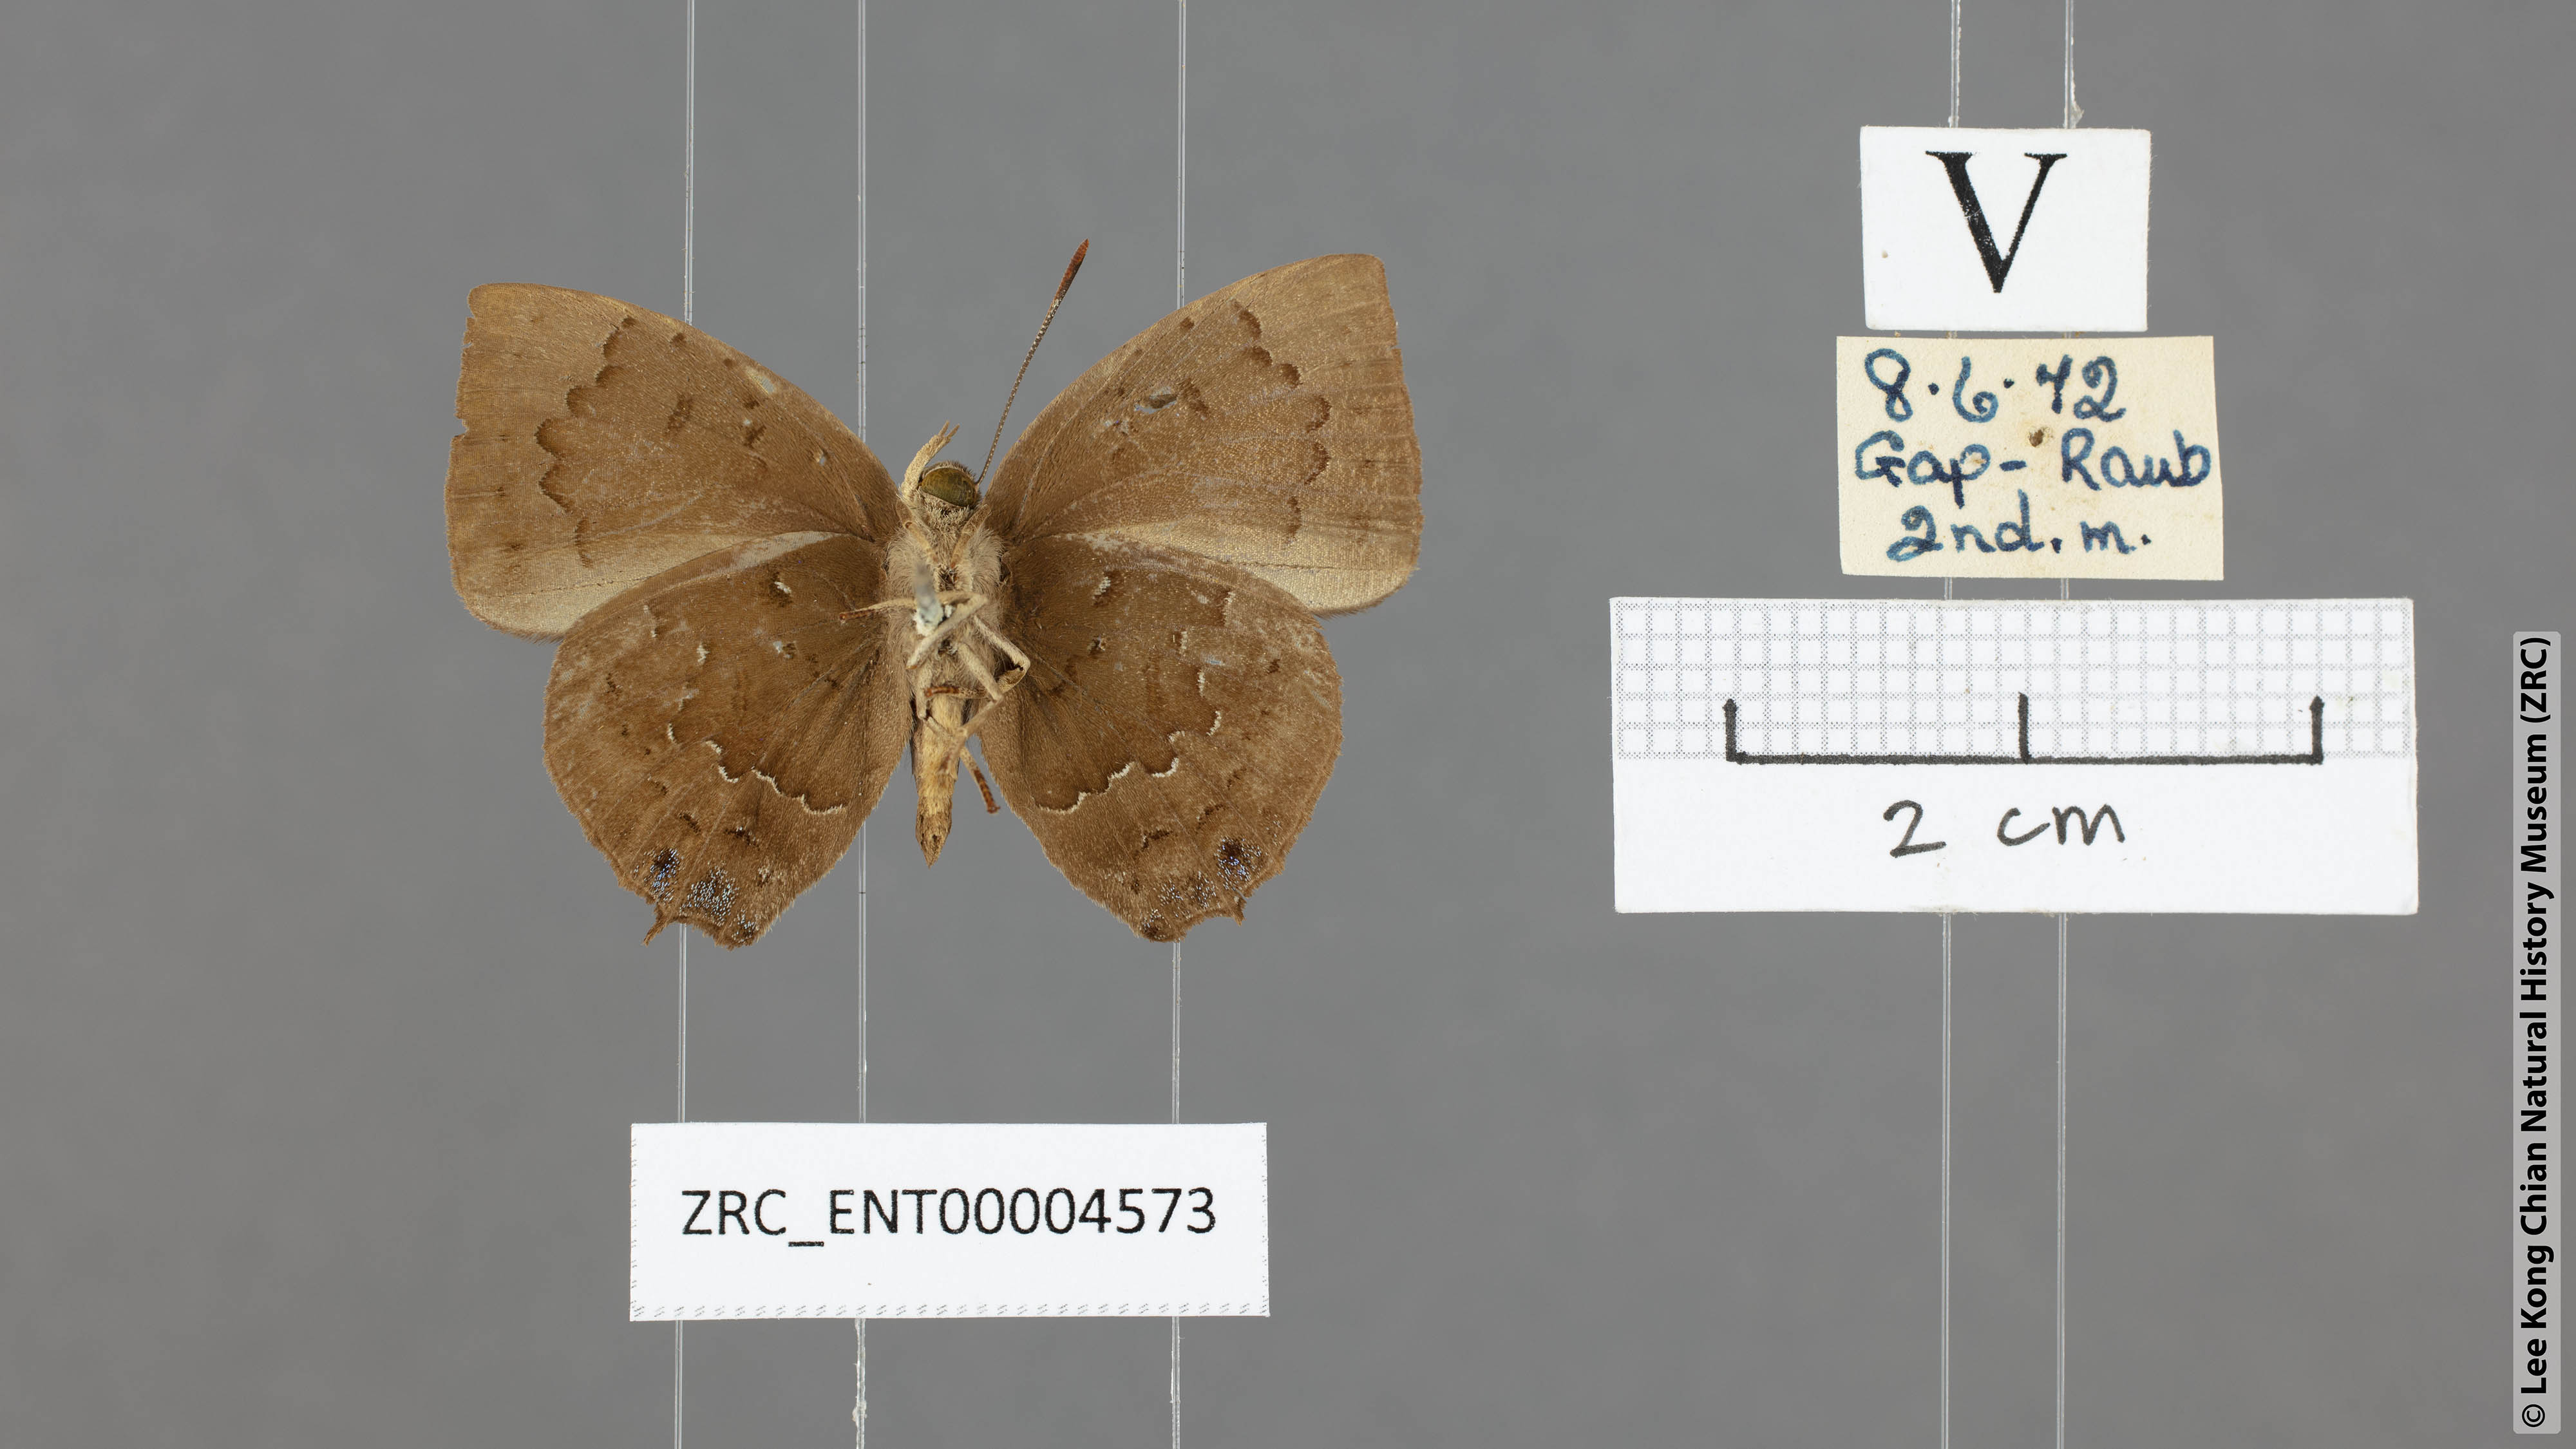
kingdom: Animalia
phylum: Arthropoda
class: Insecta
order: Lepidoptera
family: Lycaenidae
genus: Surendra
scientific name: Surendra vivarna
